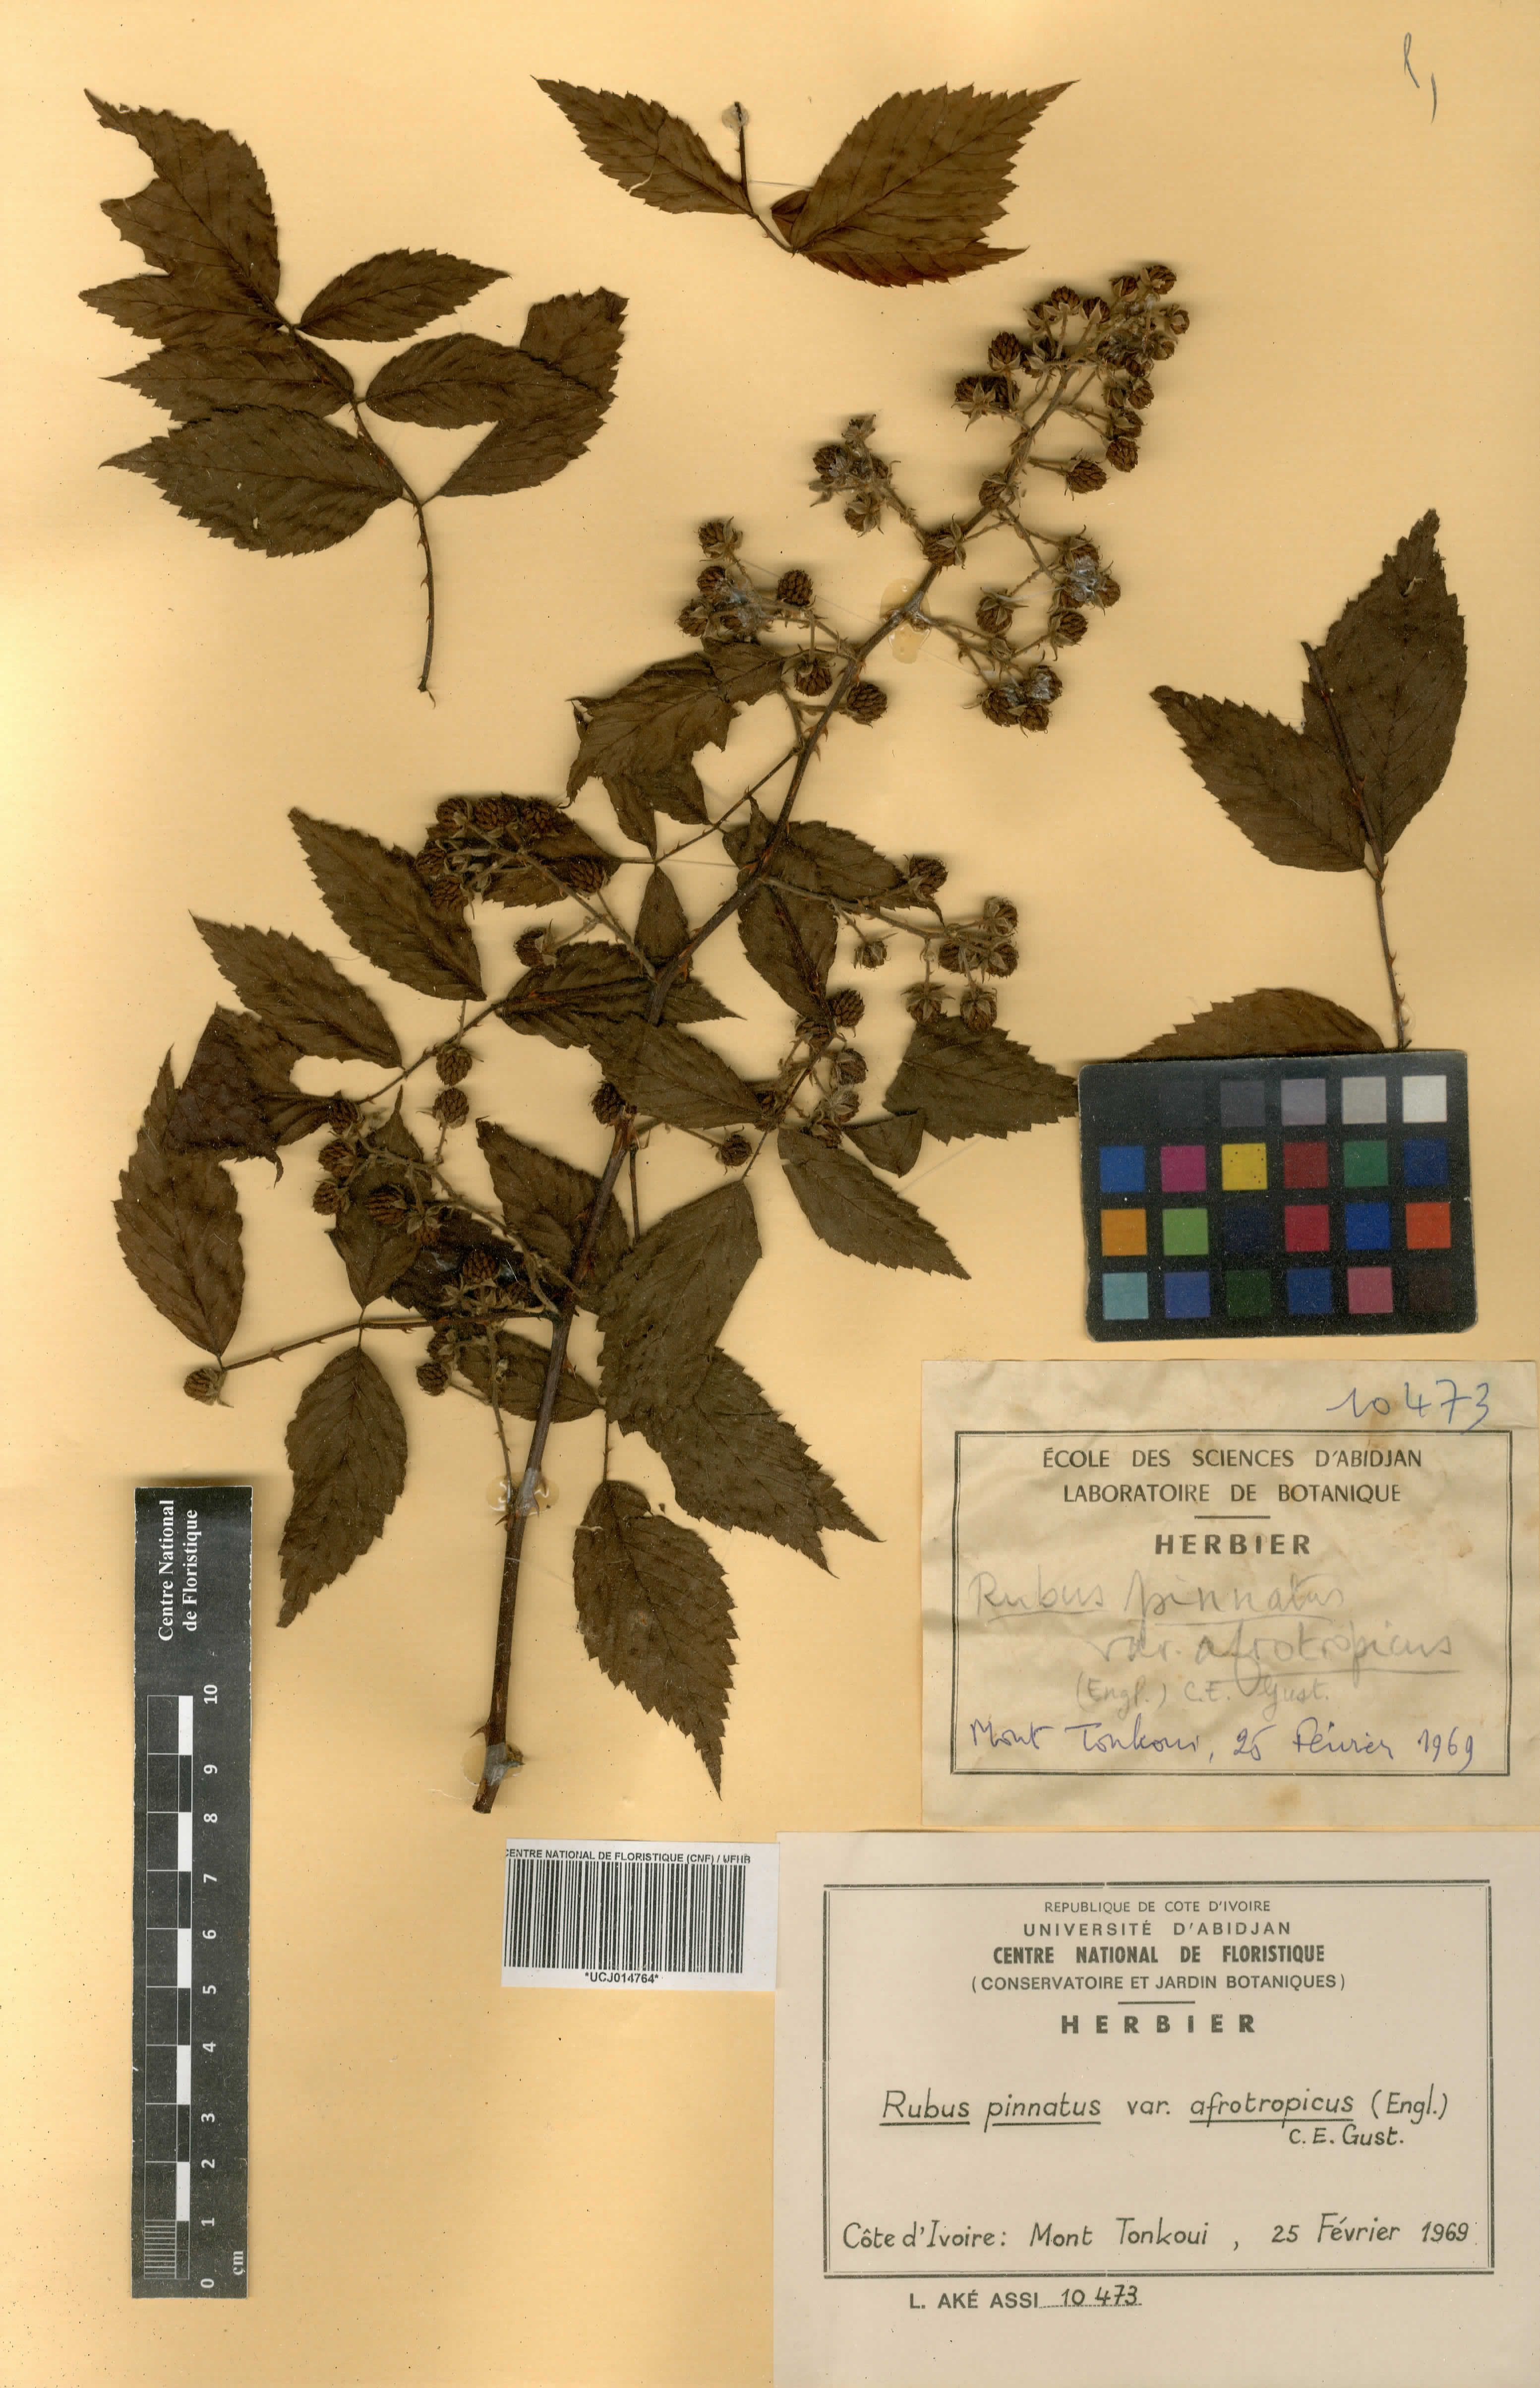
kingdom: Plantae
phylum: Tracheophyta
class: Magnoliopsida
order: Rosales
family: Rosaceae
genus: Rubus
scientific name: Rubus pinnatus
